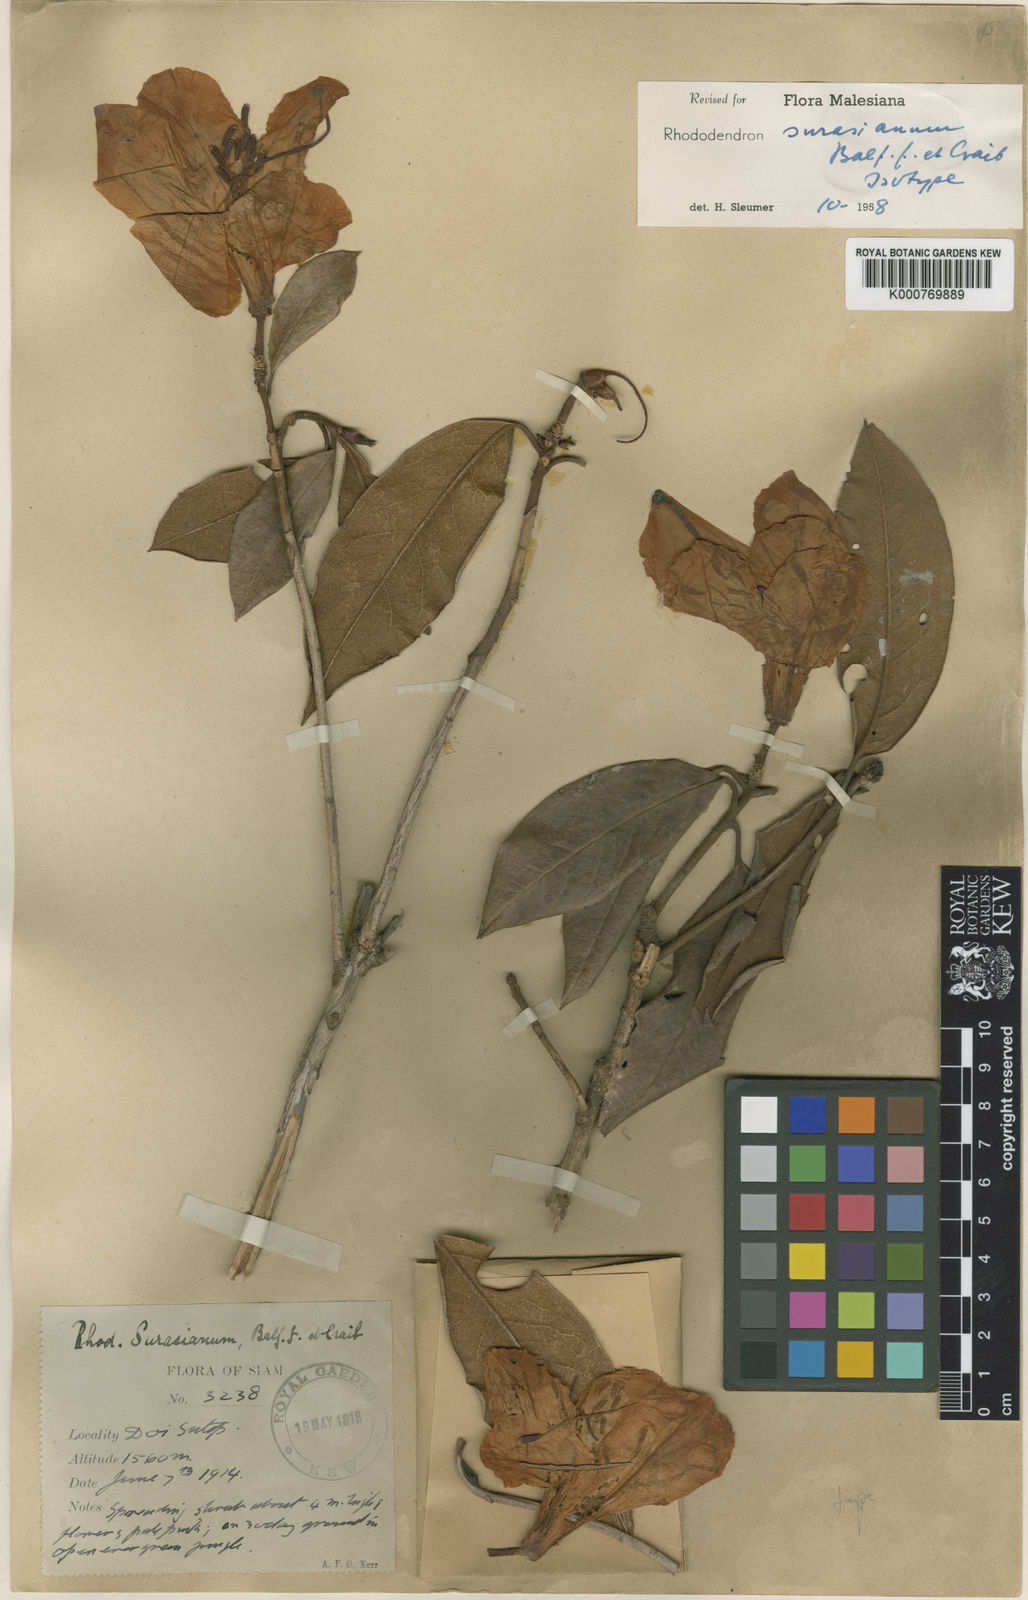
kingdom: Plantae
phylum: Tracheophyta
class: Magnoliopsida
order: Ericales
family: Ericaceae
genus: Rhododendron
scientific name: Rhododendron ciliicalyx
